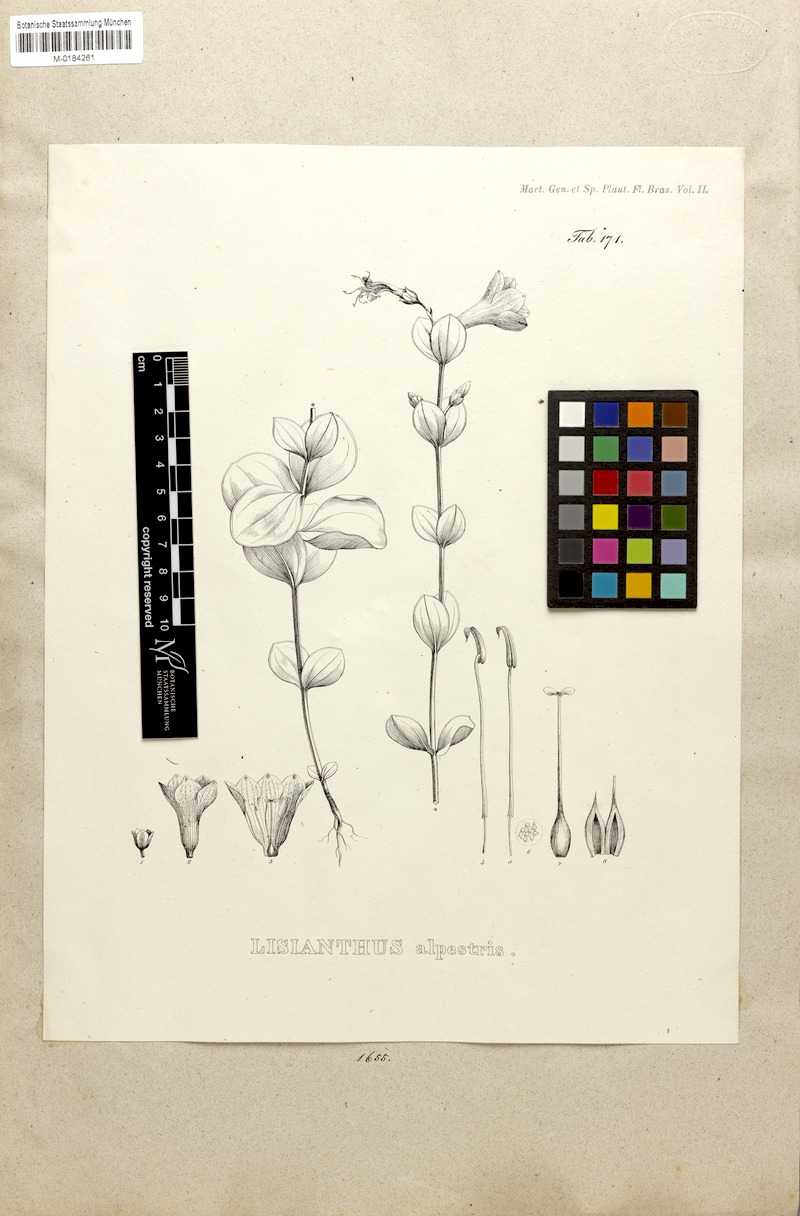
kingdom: Plantae
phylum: Tracheophyta
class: Magnoliopsida
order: Gentianales
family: Gentianaceae
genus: Calolisianthus
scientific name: Calolisianthus speciosus
